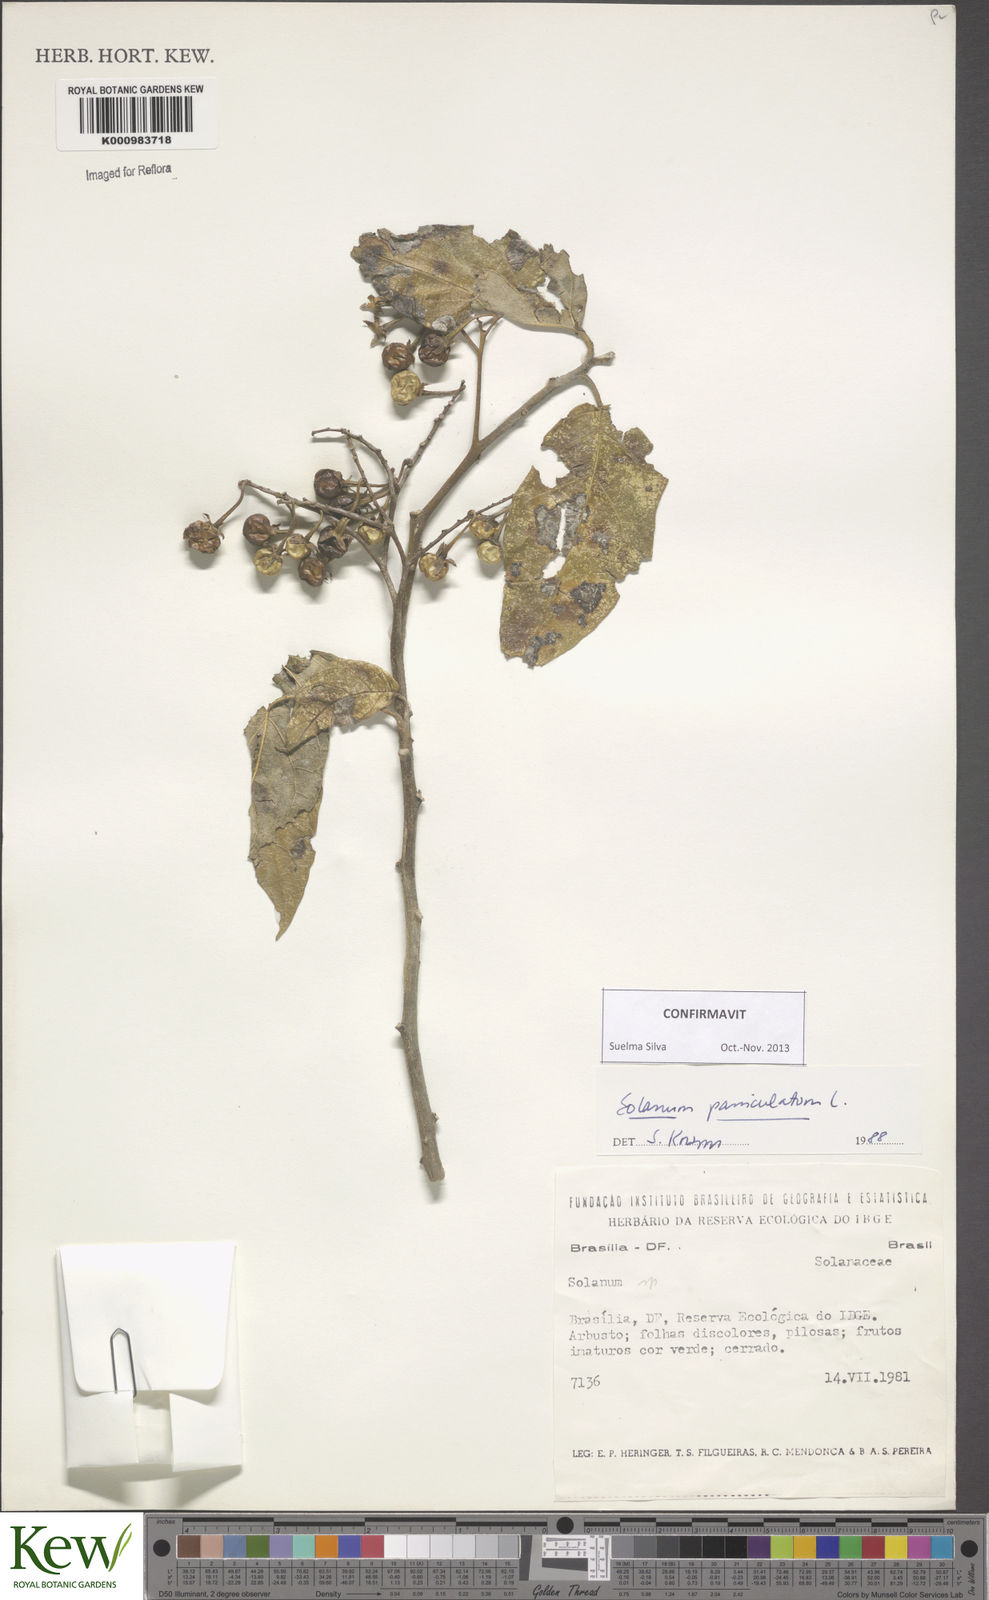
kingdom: Plantae
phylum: Tracheophyta
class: Magnoliopsida
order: Solanales
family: Solanaceae
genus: Solanum
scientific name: Solanum paniculatum
